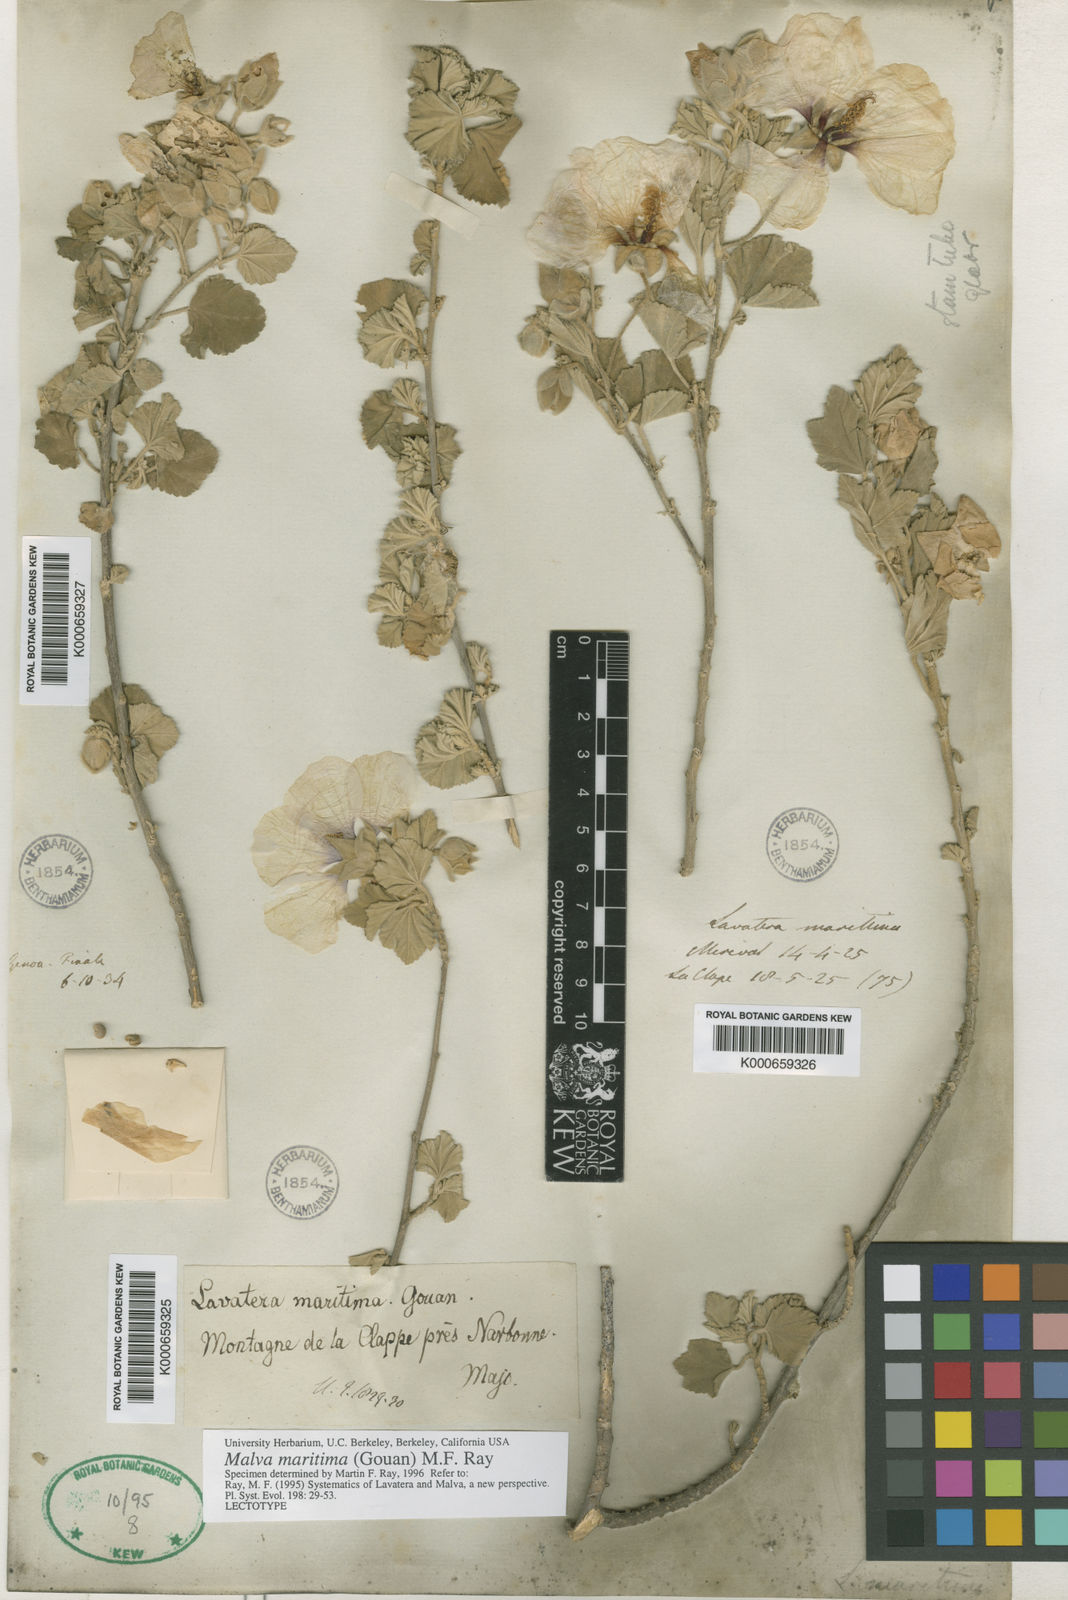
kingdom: Plantae
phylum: Tracheophyta
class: Magnoliopsida
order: Malvales
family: Malvaceae
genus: Althaea
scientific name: Althaea officinalis
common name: Marsh-mallow
